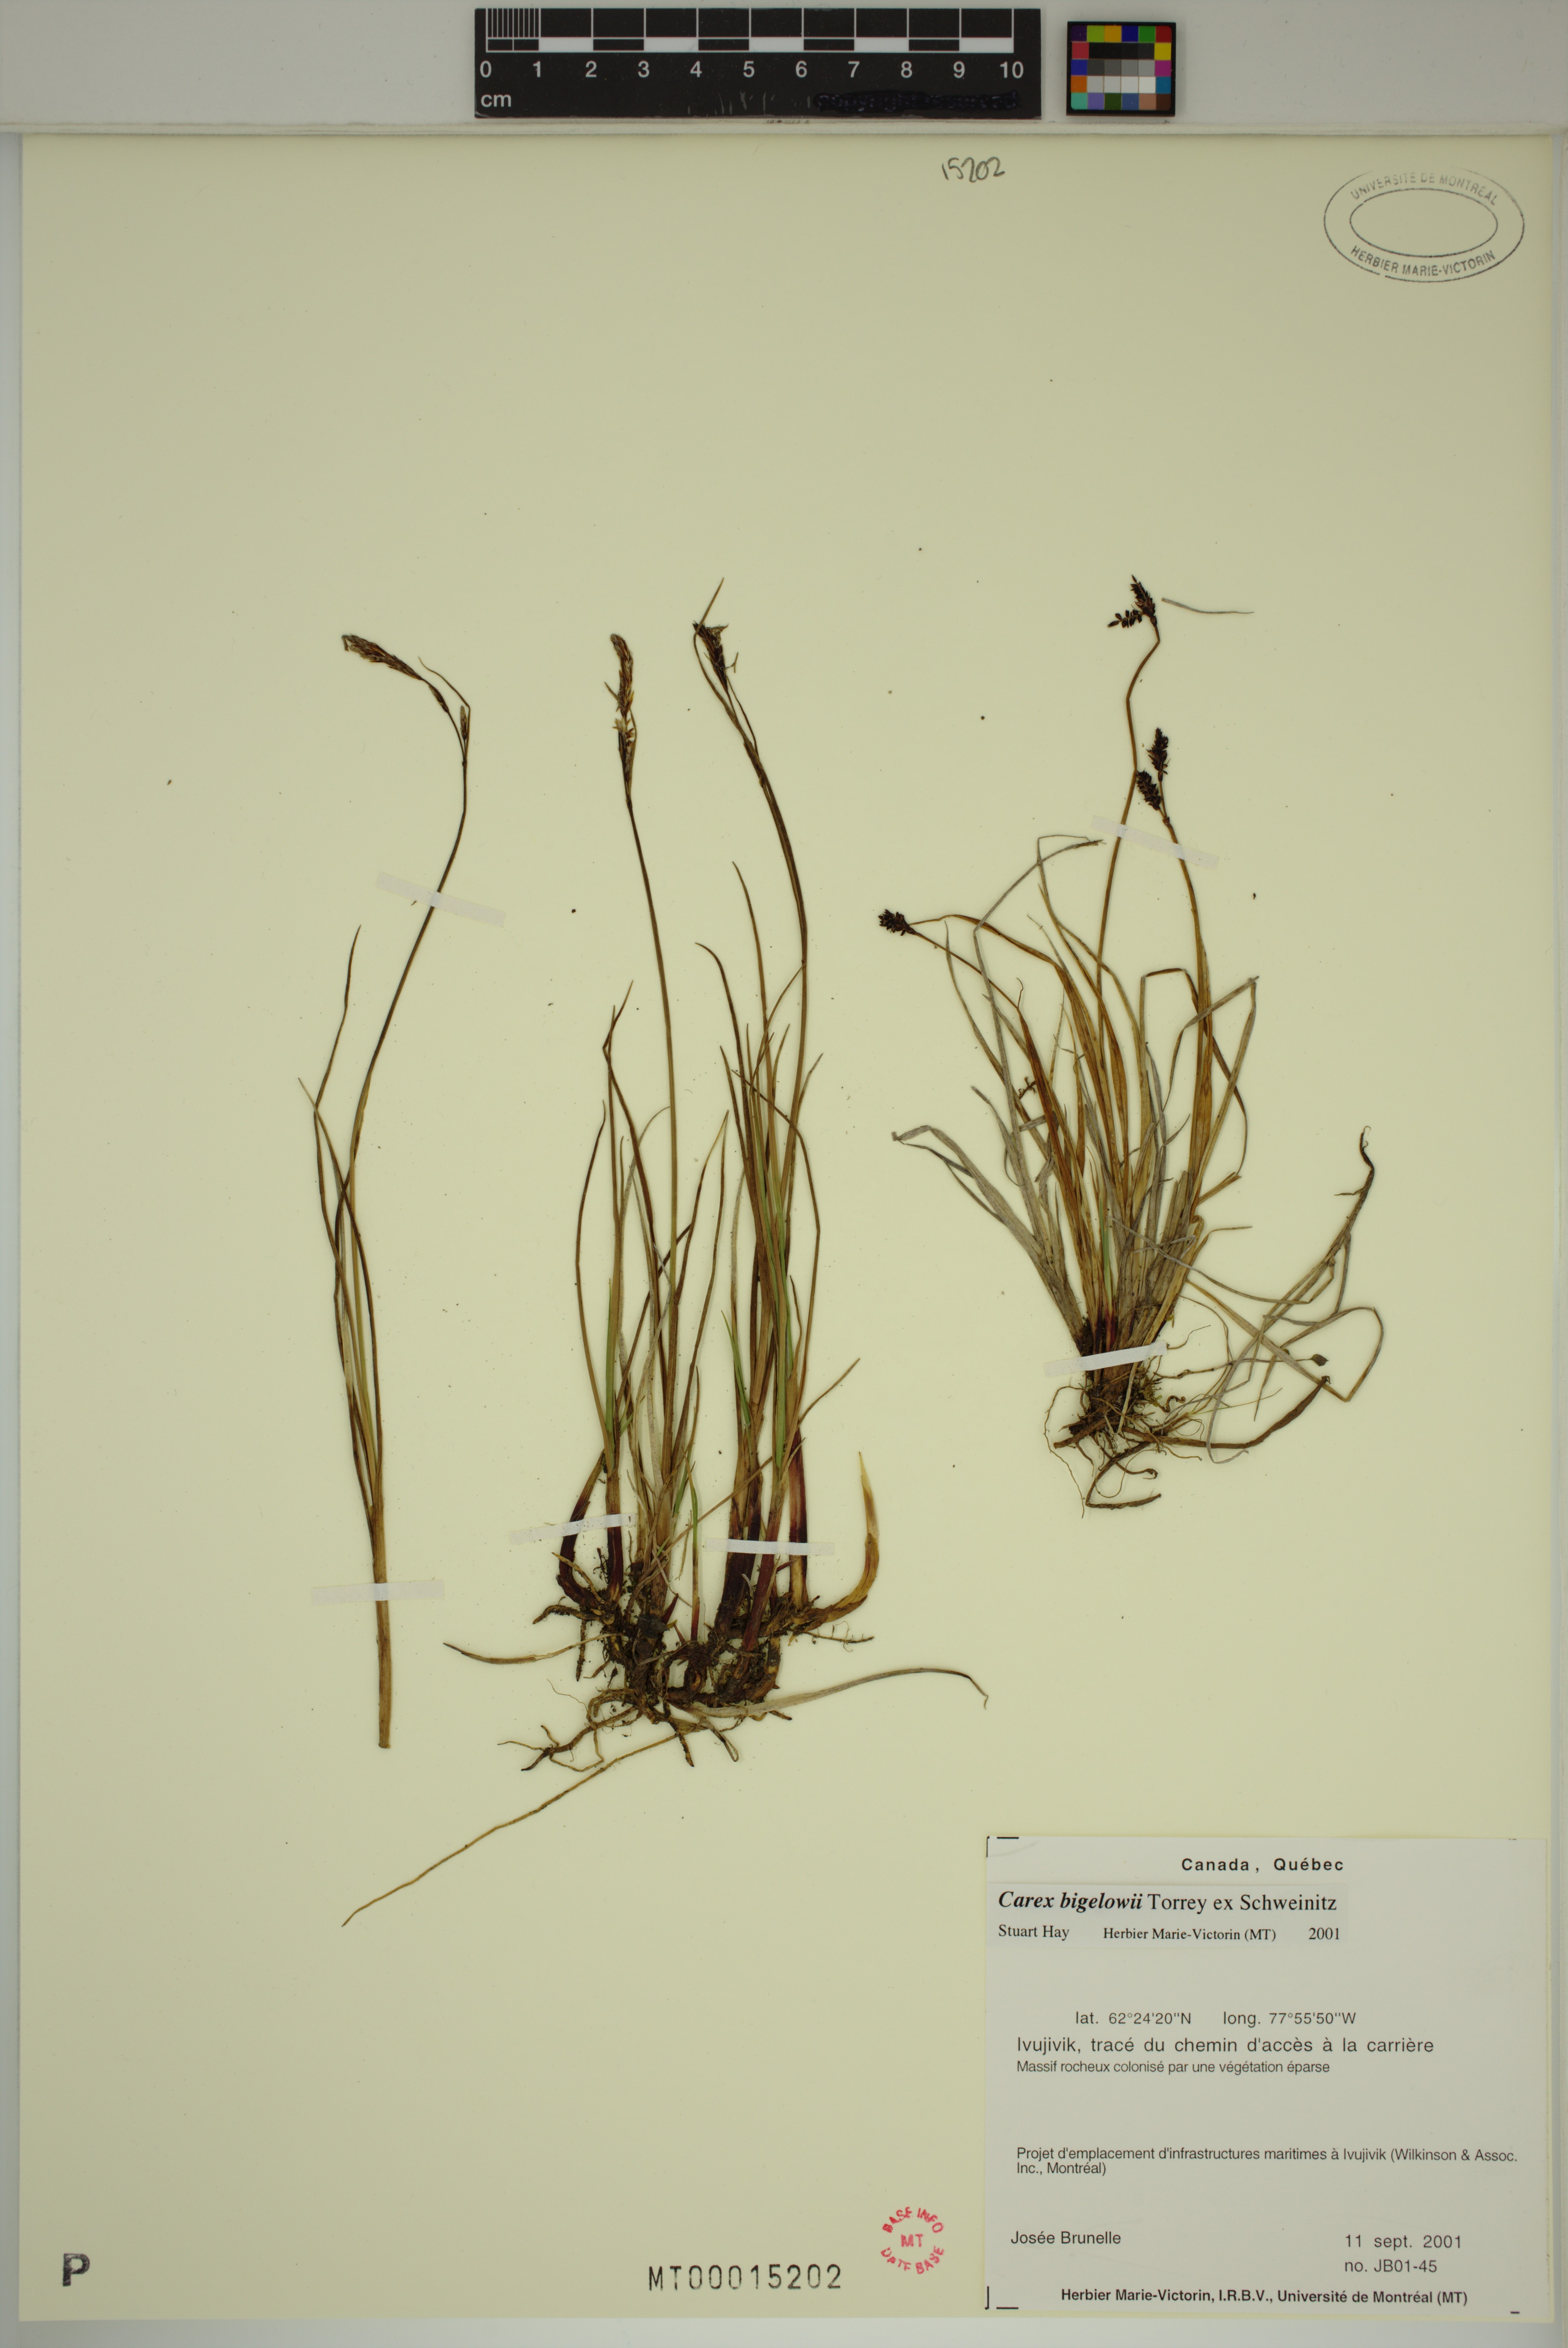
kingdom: Plantae
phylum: Tracheophyta
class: Liliopsida
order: Poales
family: Cyperaceae
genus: Carex
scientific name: Carex bigelowii
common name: Stiff sedge
